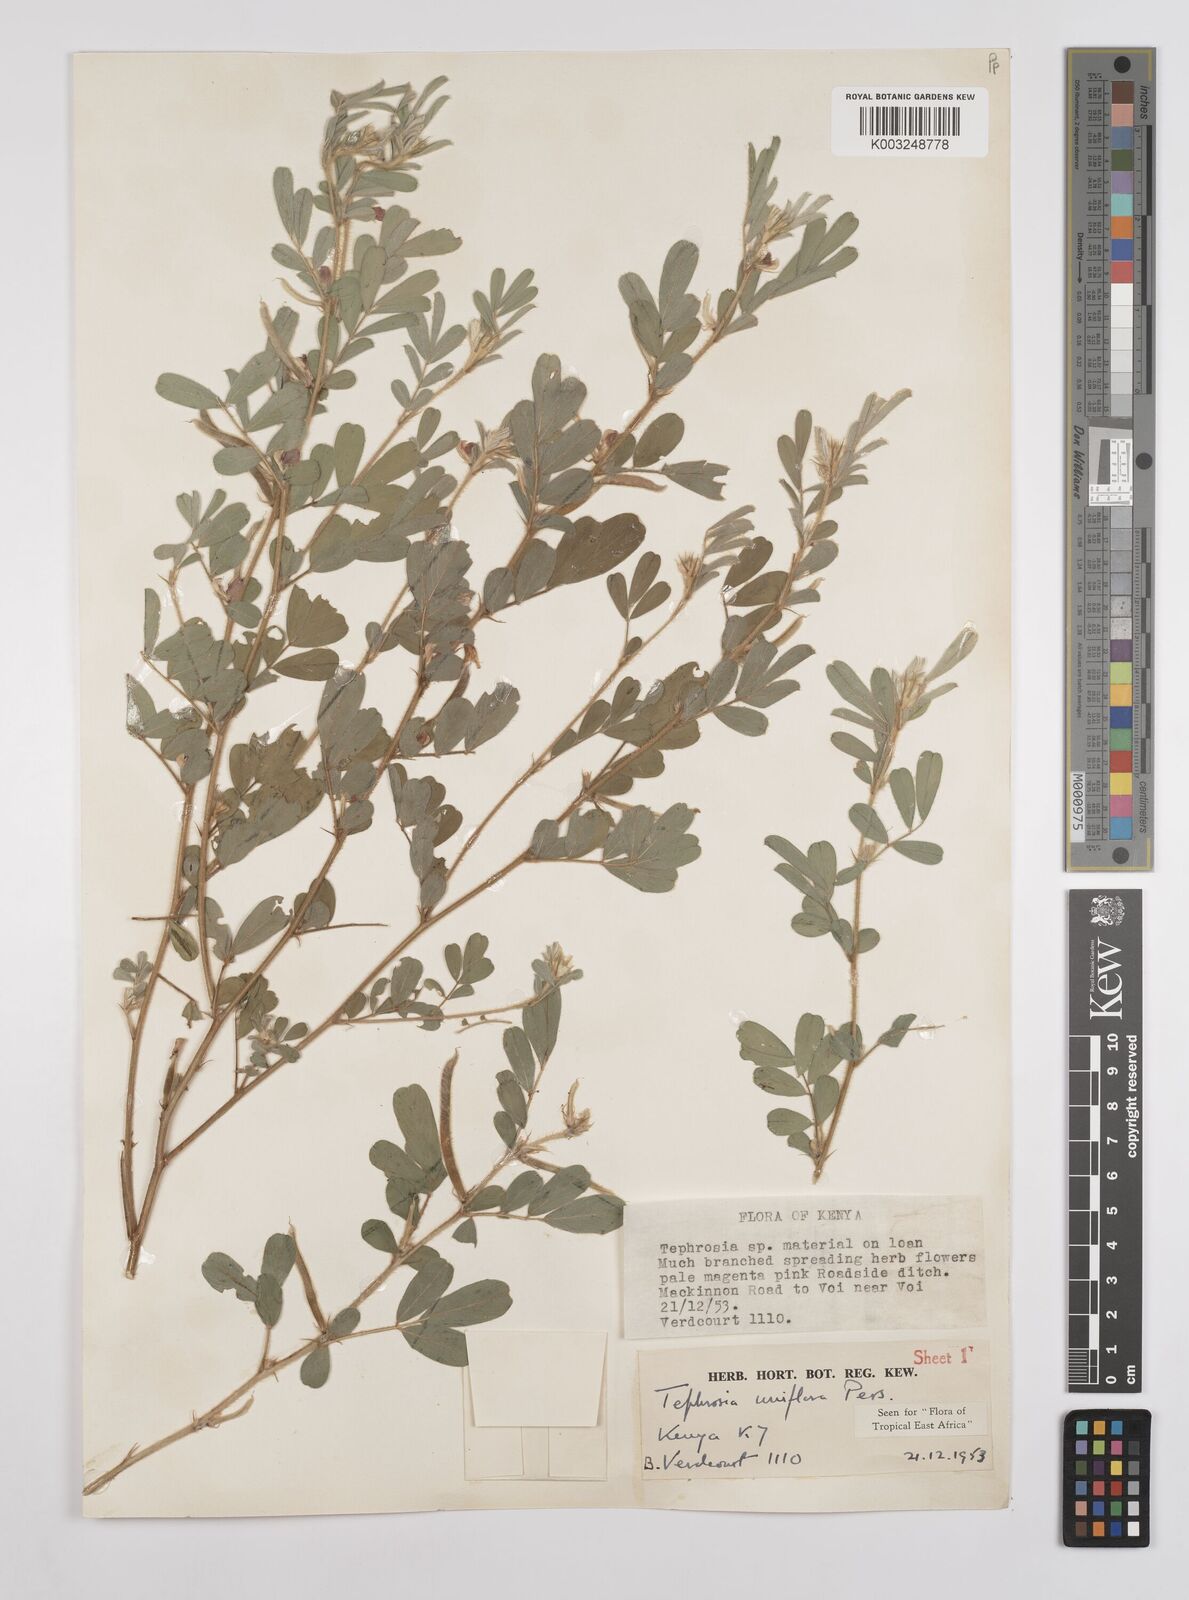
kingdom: Plantae
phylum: Tracheophyta
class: Magnoliopsida
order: Fabales
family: Fabaceae
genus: Tephrosia
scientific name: Tephrosia uniflora
